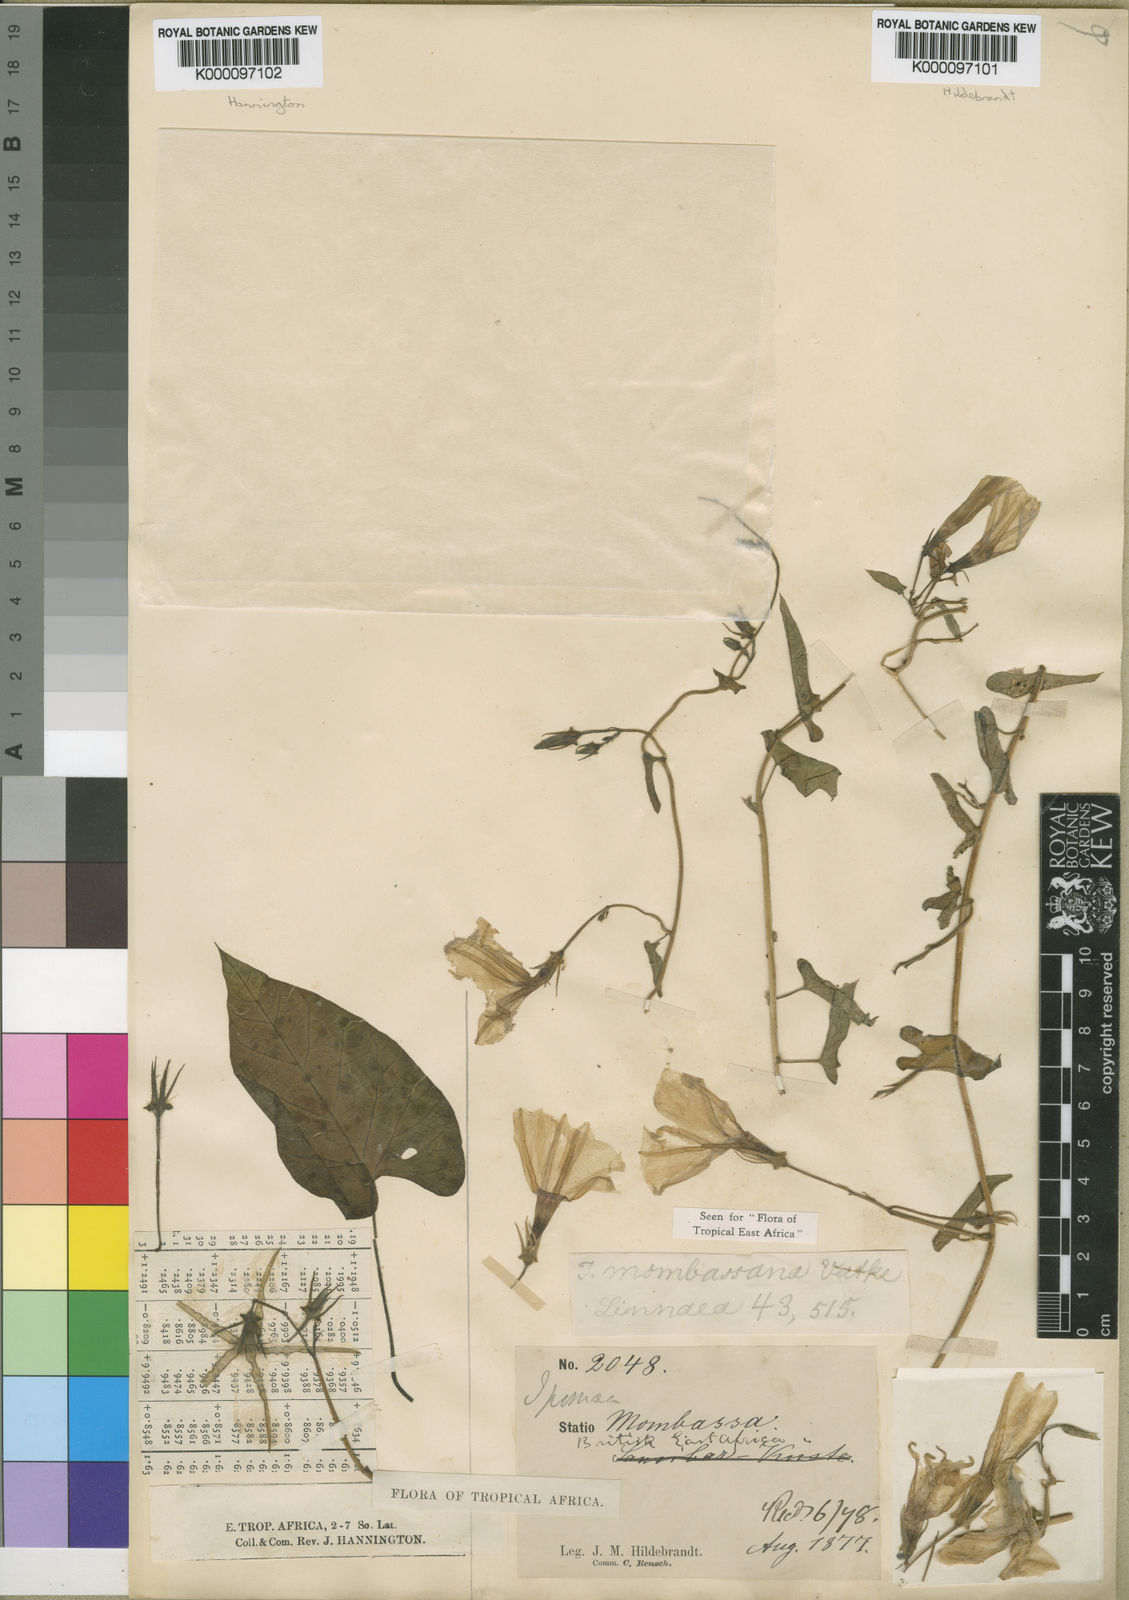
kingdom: Plantae
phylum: Tracheophyta
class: Magnoliopsida
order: Solanales
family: Convolvulaceae
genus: Ipomoea
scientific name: Ipomoea mombassana
